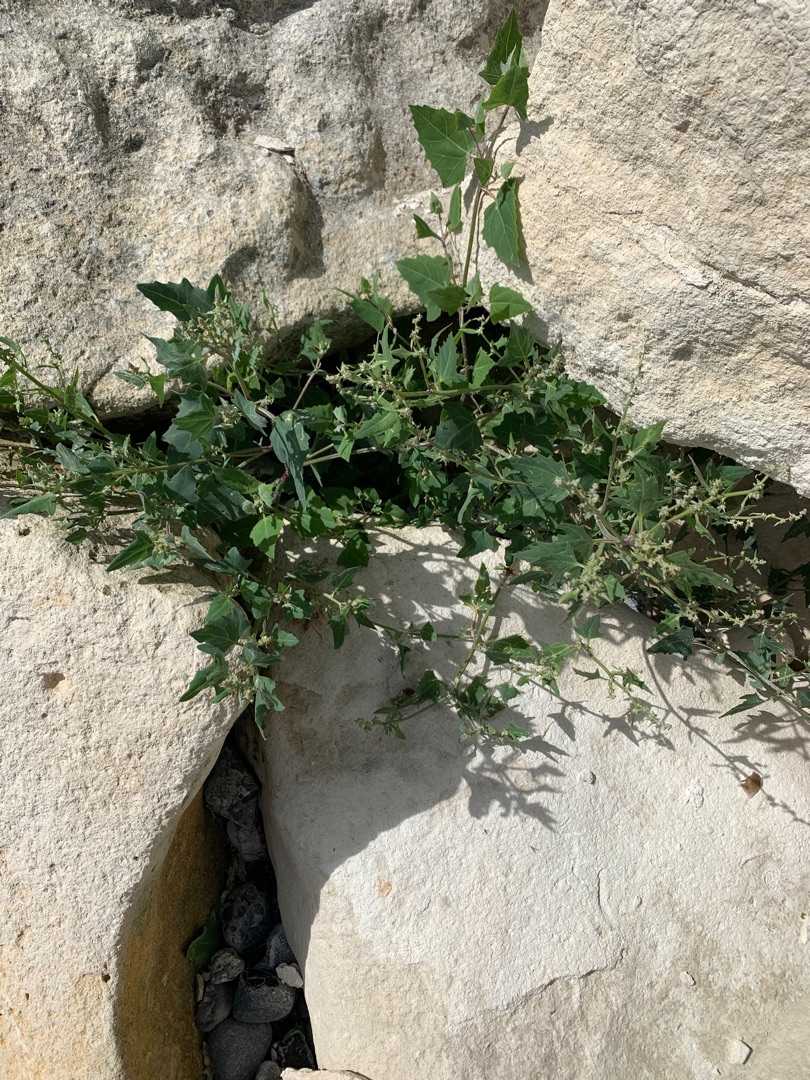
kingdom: Plantae
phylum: Tracheophyta
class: Magnoliopsida
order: Caryophyllales
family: Amaranthaceae
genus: Atriplex
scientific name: Atriplex prostrata
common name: Spyd-mælde
